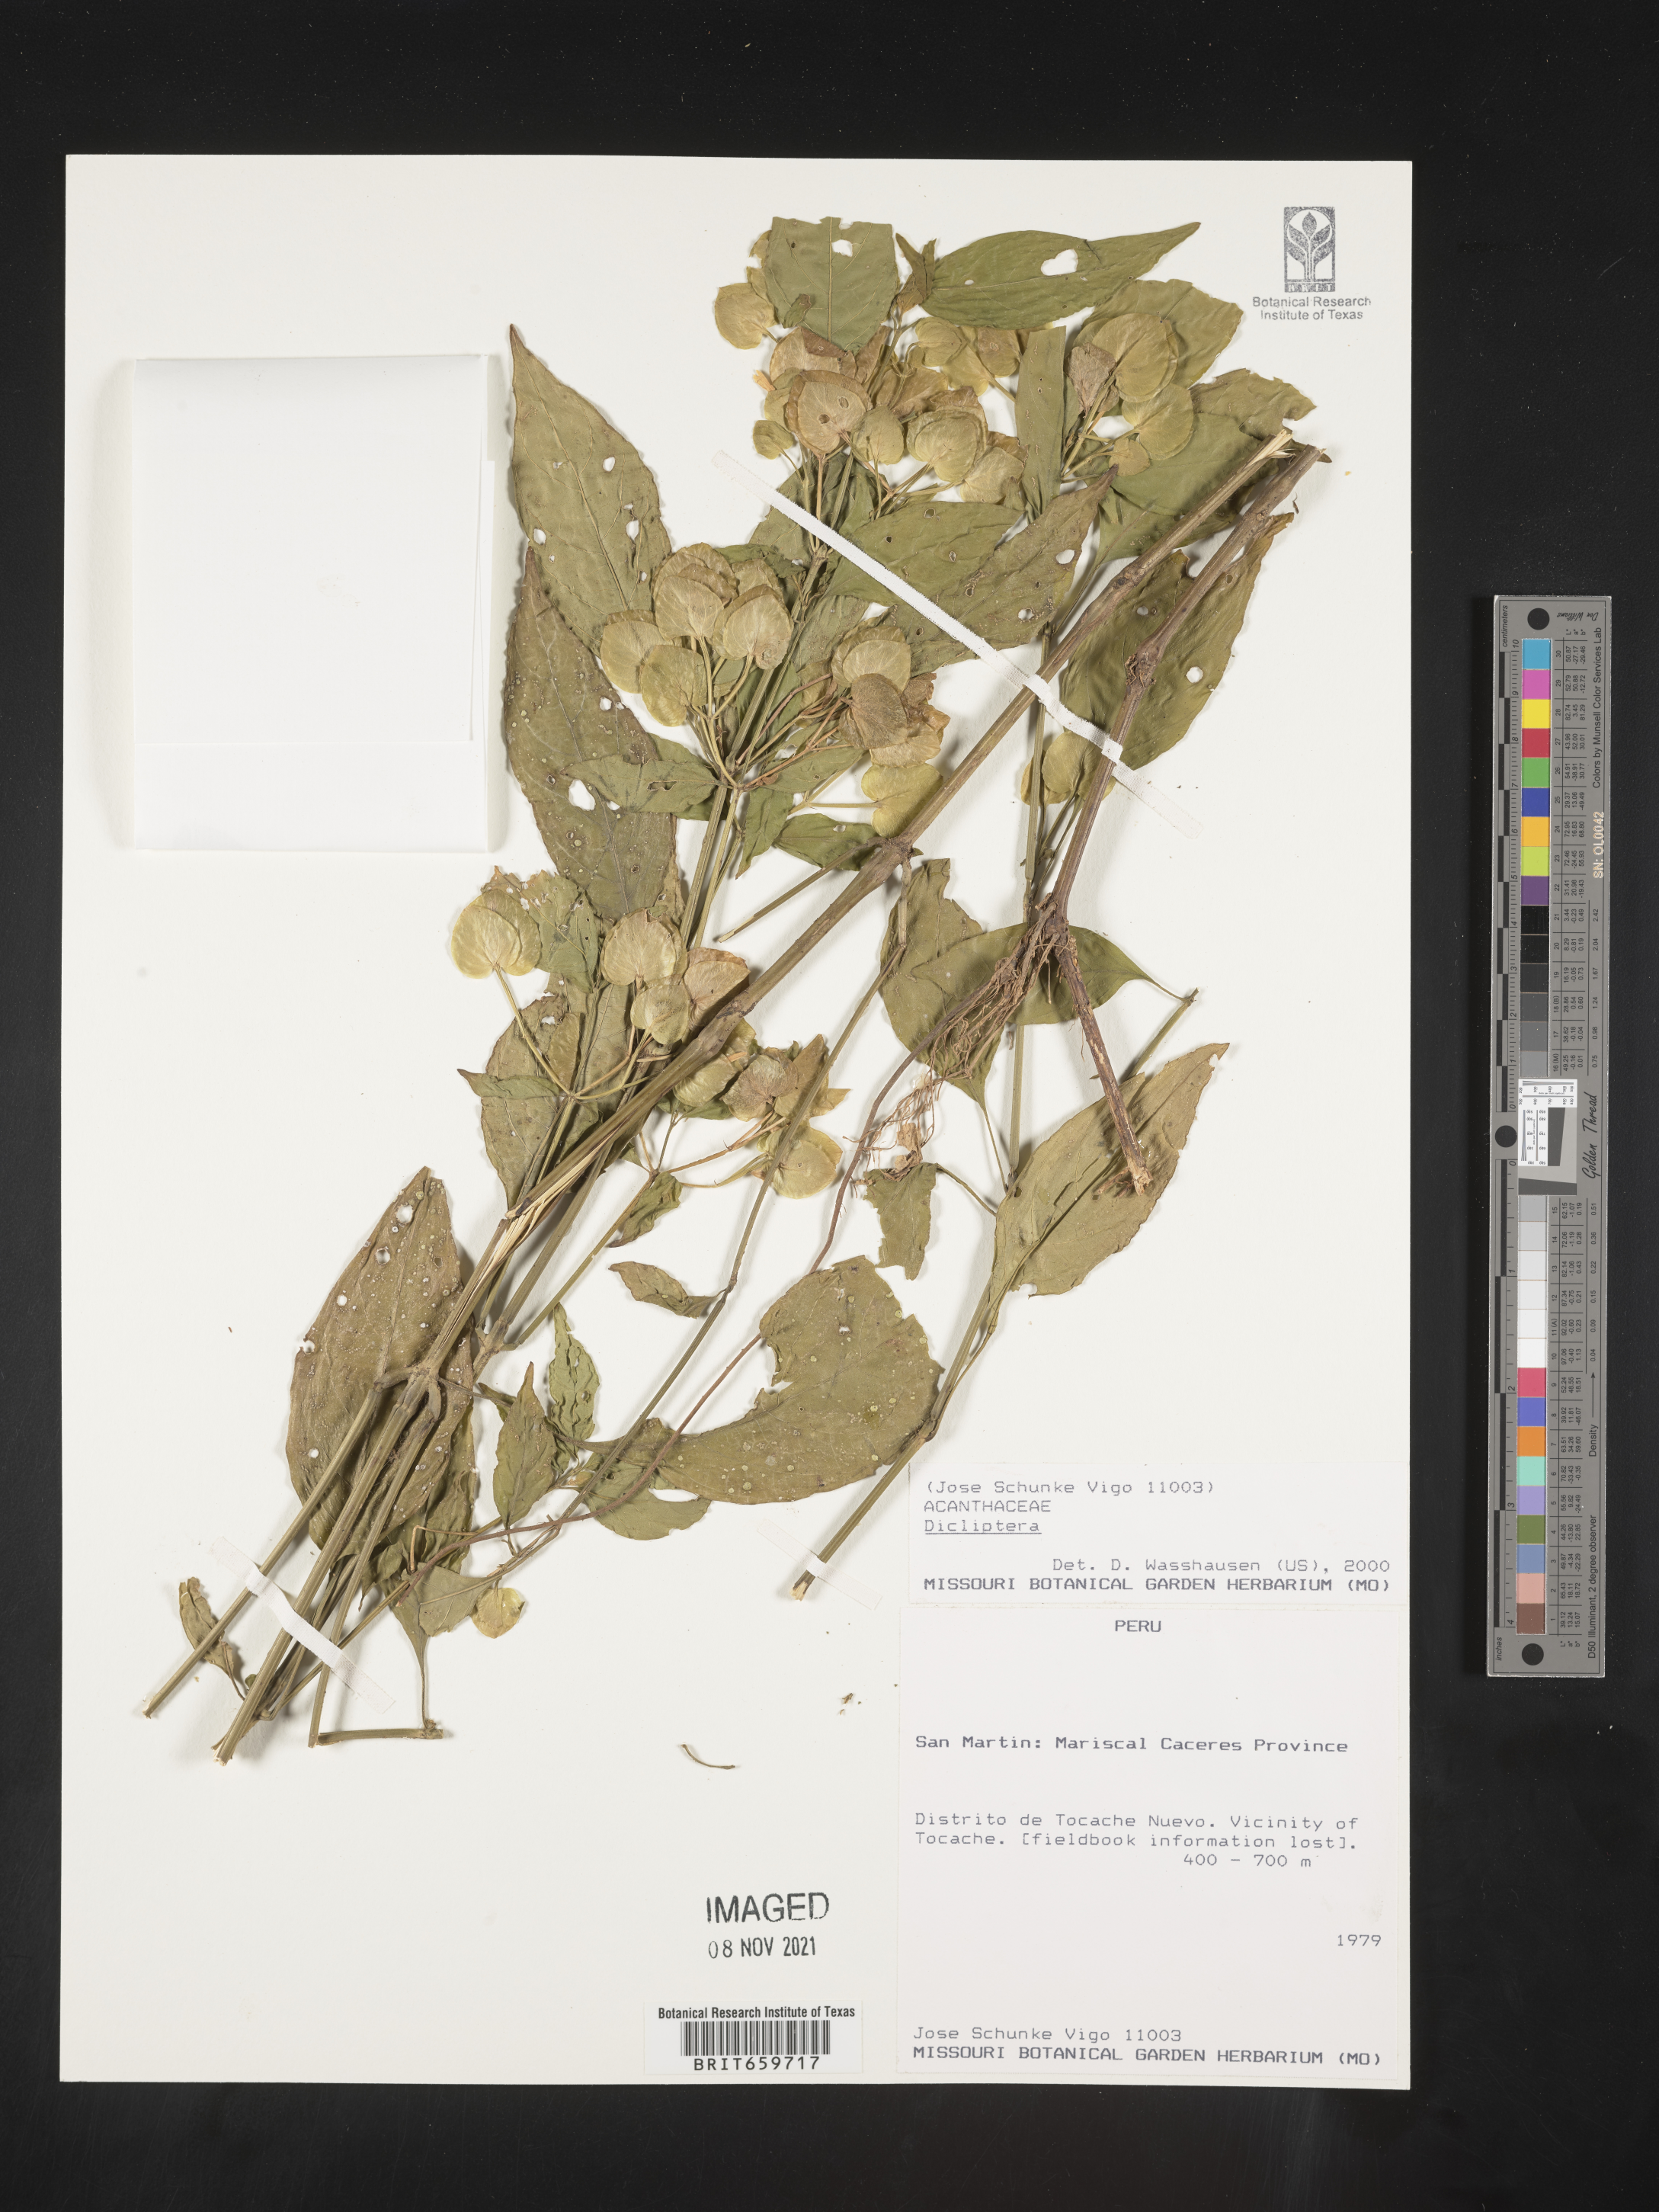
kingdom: Plantae
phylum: Tracheophyta
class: Magnoliopsida
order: Lamiales
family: Acanthaceae
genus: Dicliptera
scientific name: Dicliptera
